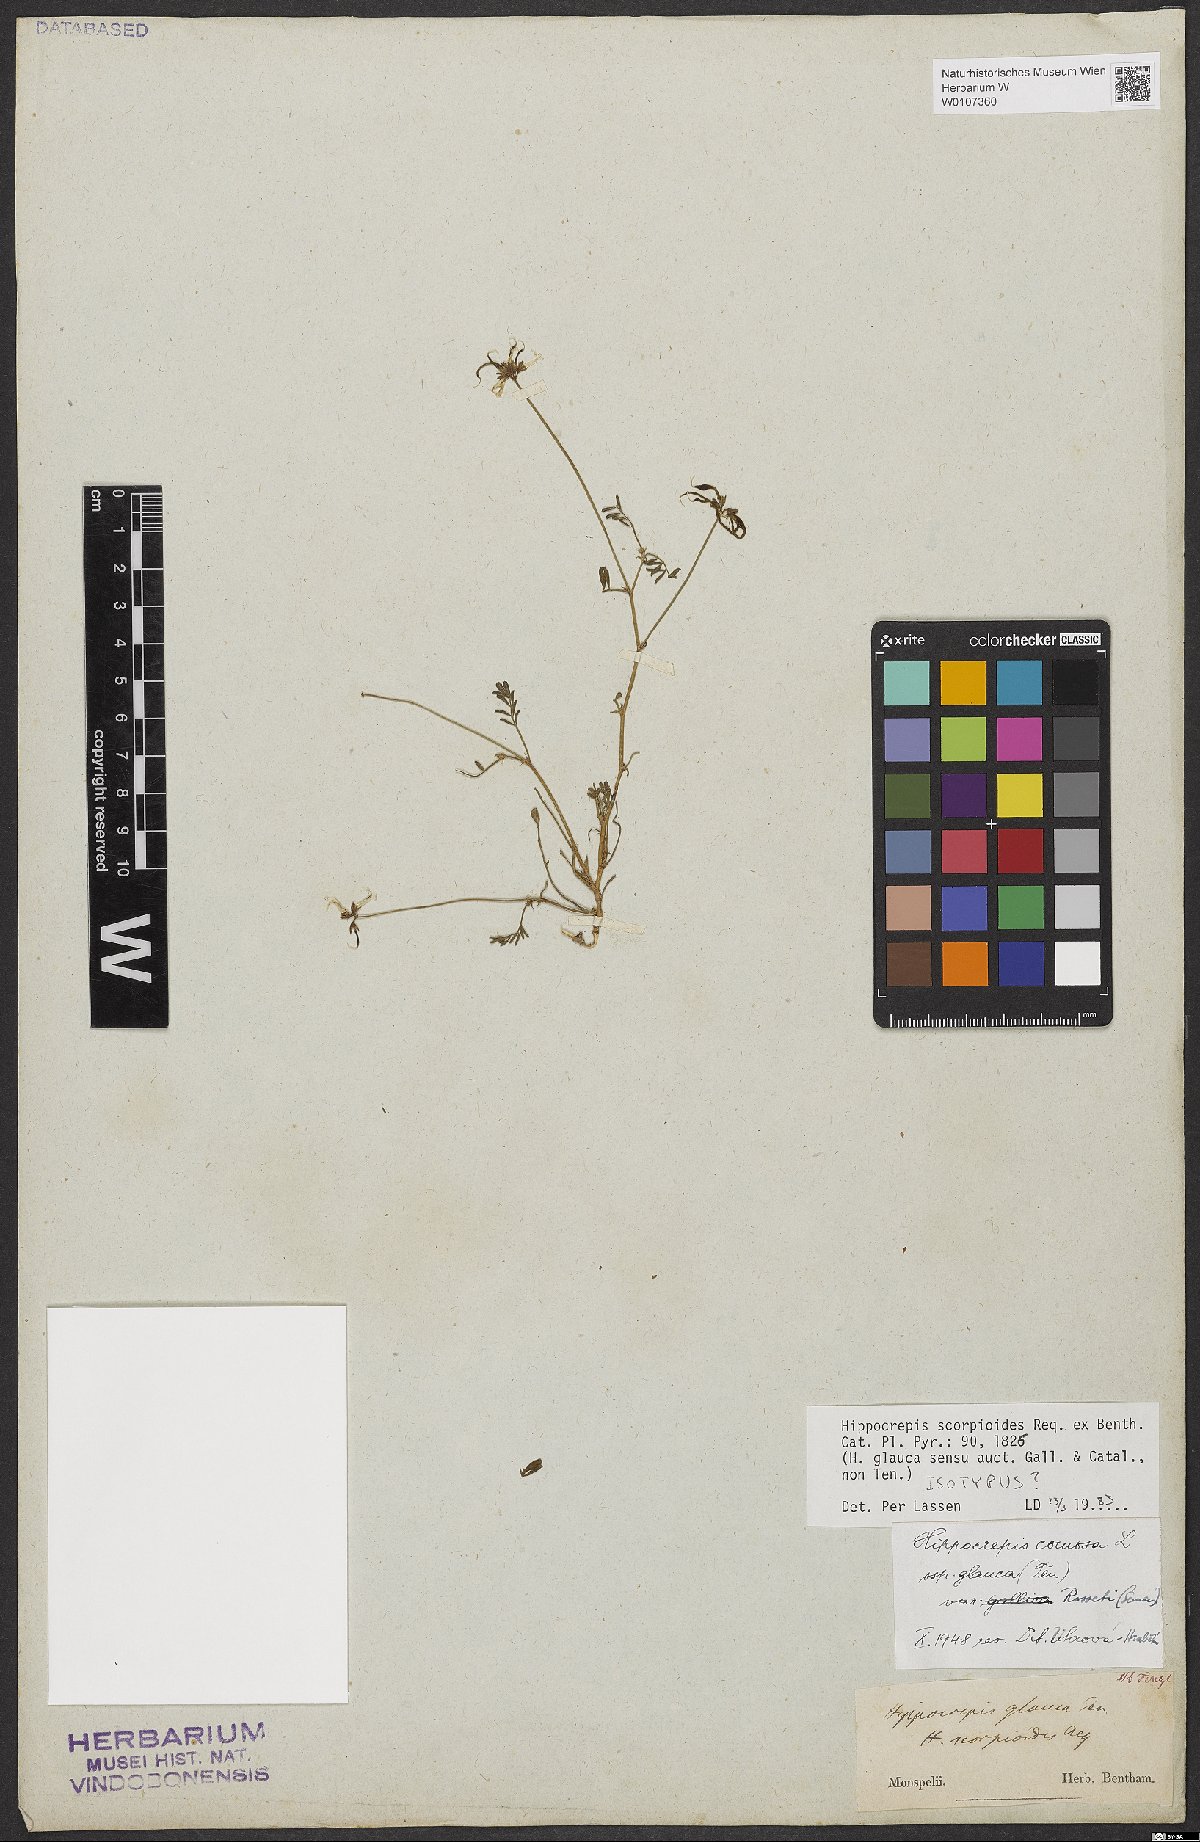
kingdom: Plantae
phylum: Tracheophyta
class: Magnoliopsida
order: Fabales
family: Fabaceae
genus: Hippocrepis
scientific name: Hippocrepis scorpioides
